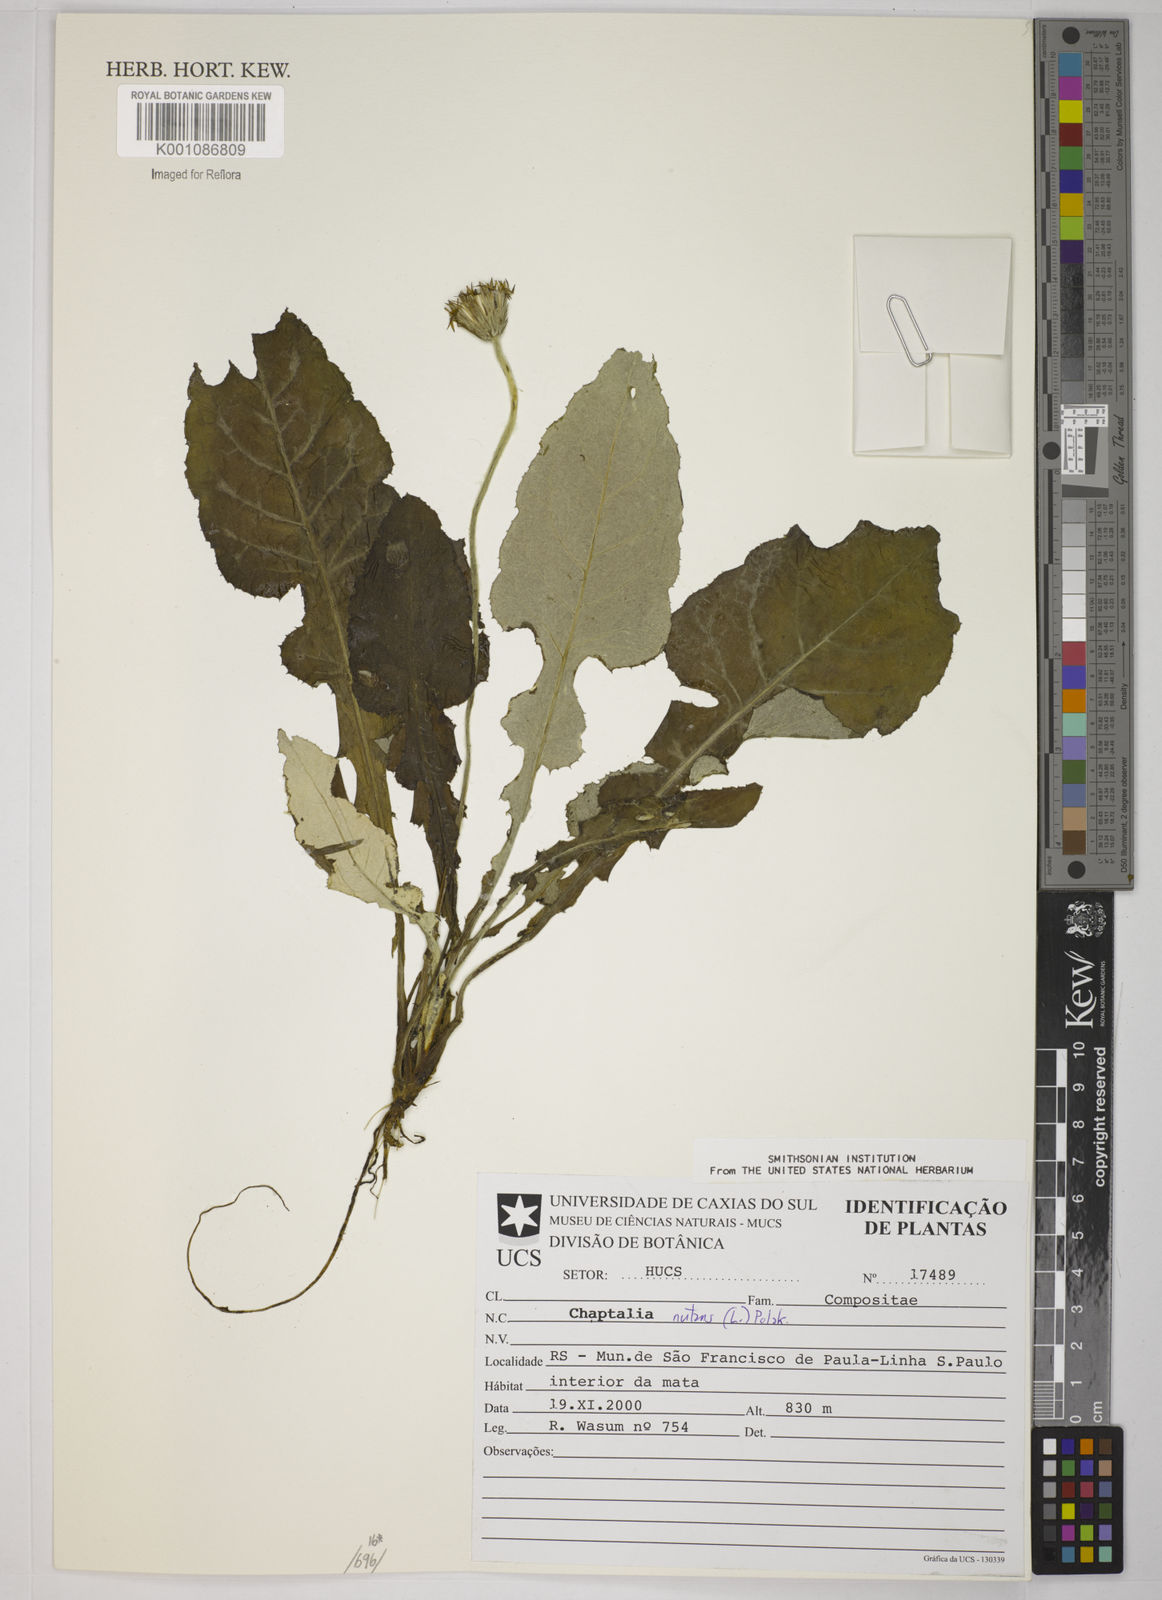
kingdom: Plantae
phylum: Tracheophyta
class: Magnoliopsida
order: Asterales
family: Asteraceae
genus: Chaptalia
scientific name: Chaptalia nutans
